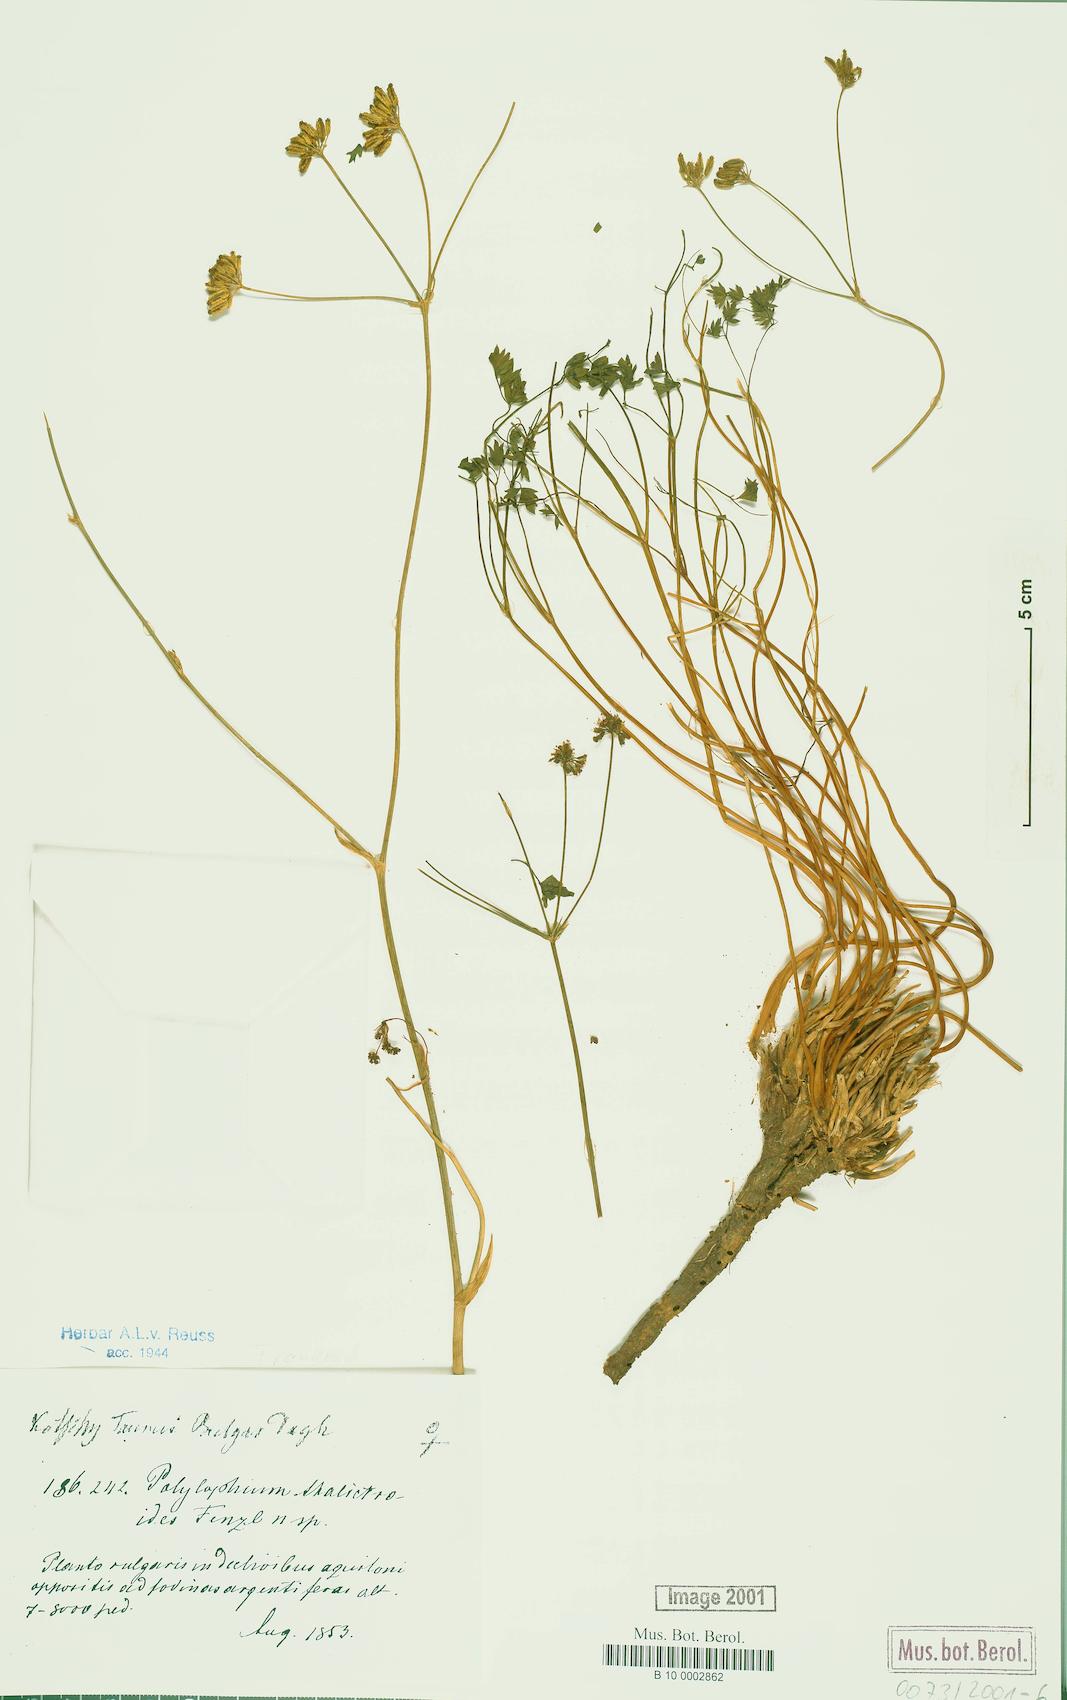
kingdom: Plantae
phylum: Tracheophyta
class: Magnoliopsida
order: Apiales
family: Apiaceae
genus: Ekimia
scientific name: Ekimia petrophila
